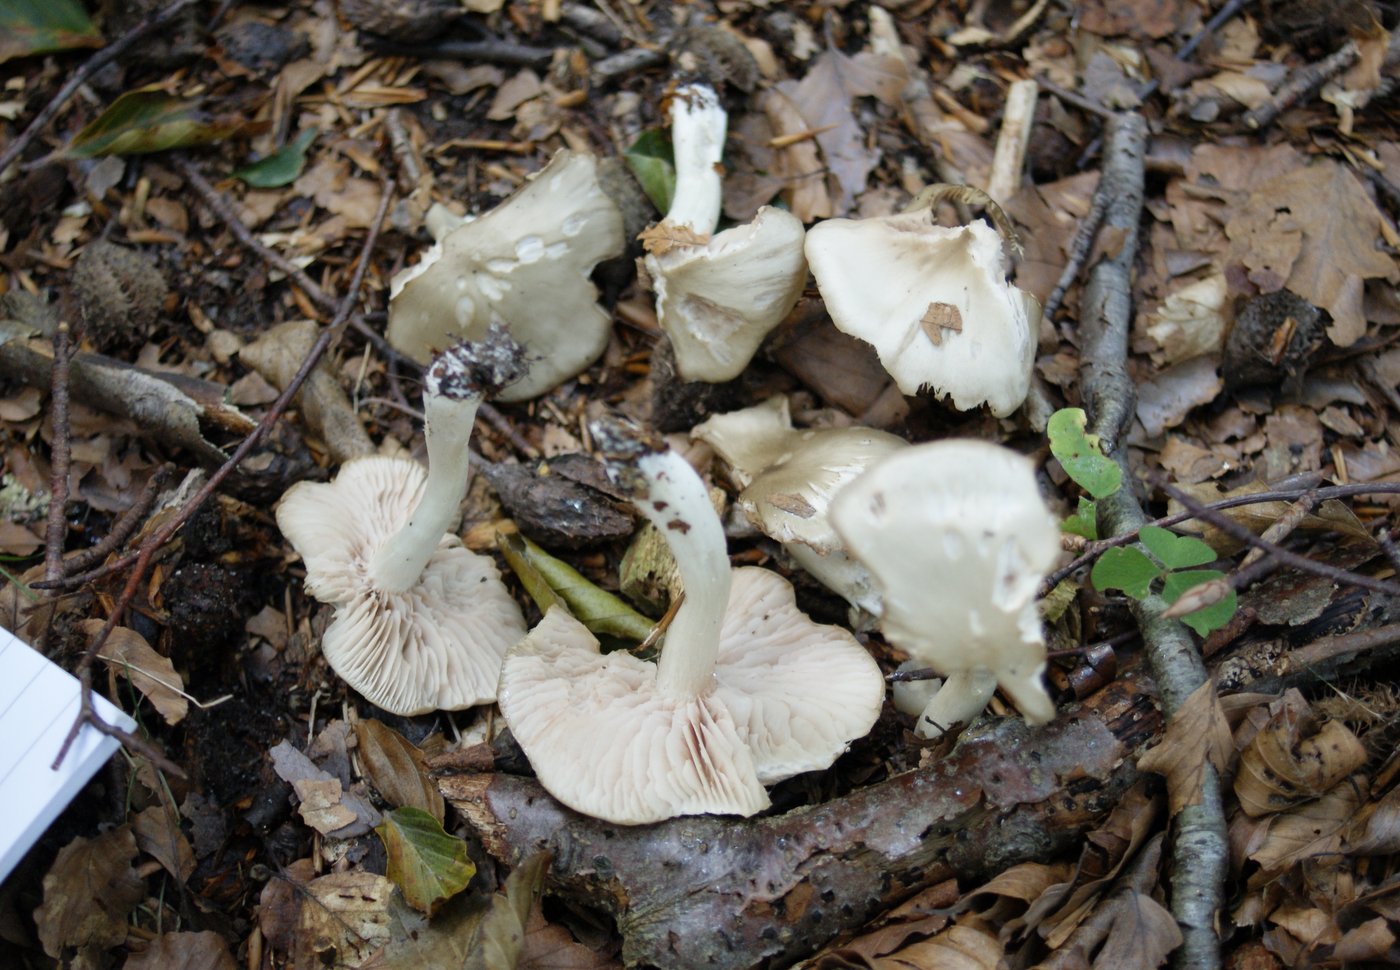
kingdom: Fungi
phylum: Basidiomycota
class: Agaricomycetes
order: Agaricales
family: Entolomataceae
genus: Entoloma
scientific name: Entoloma rhodopolium
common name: skov-rødblad
